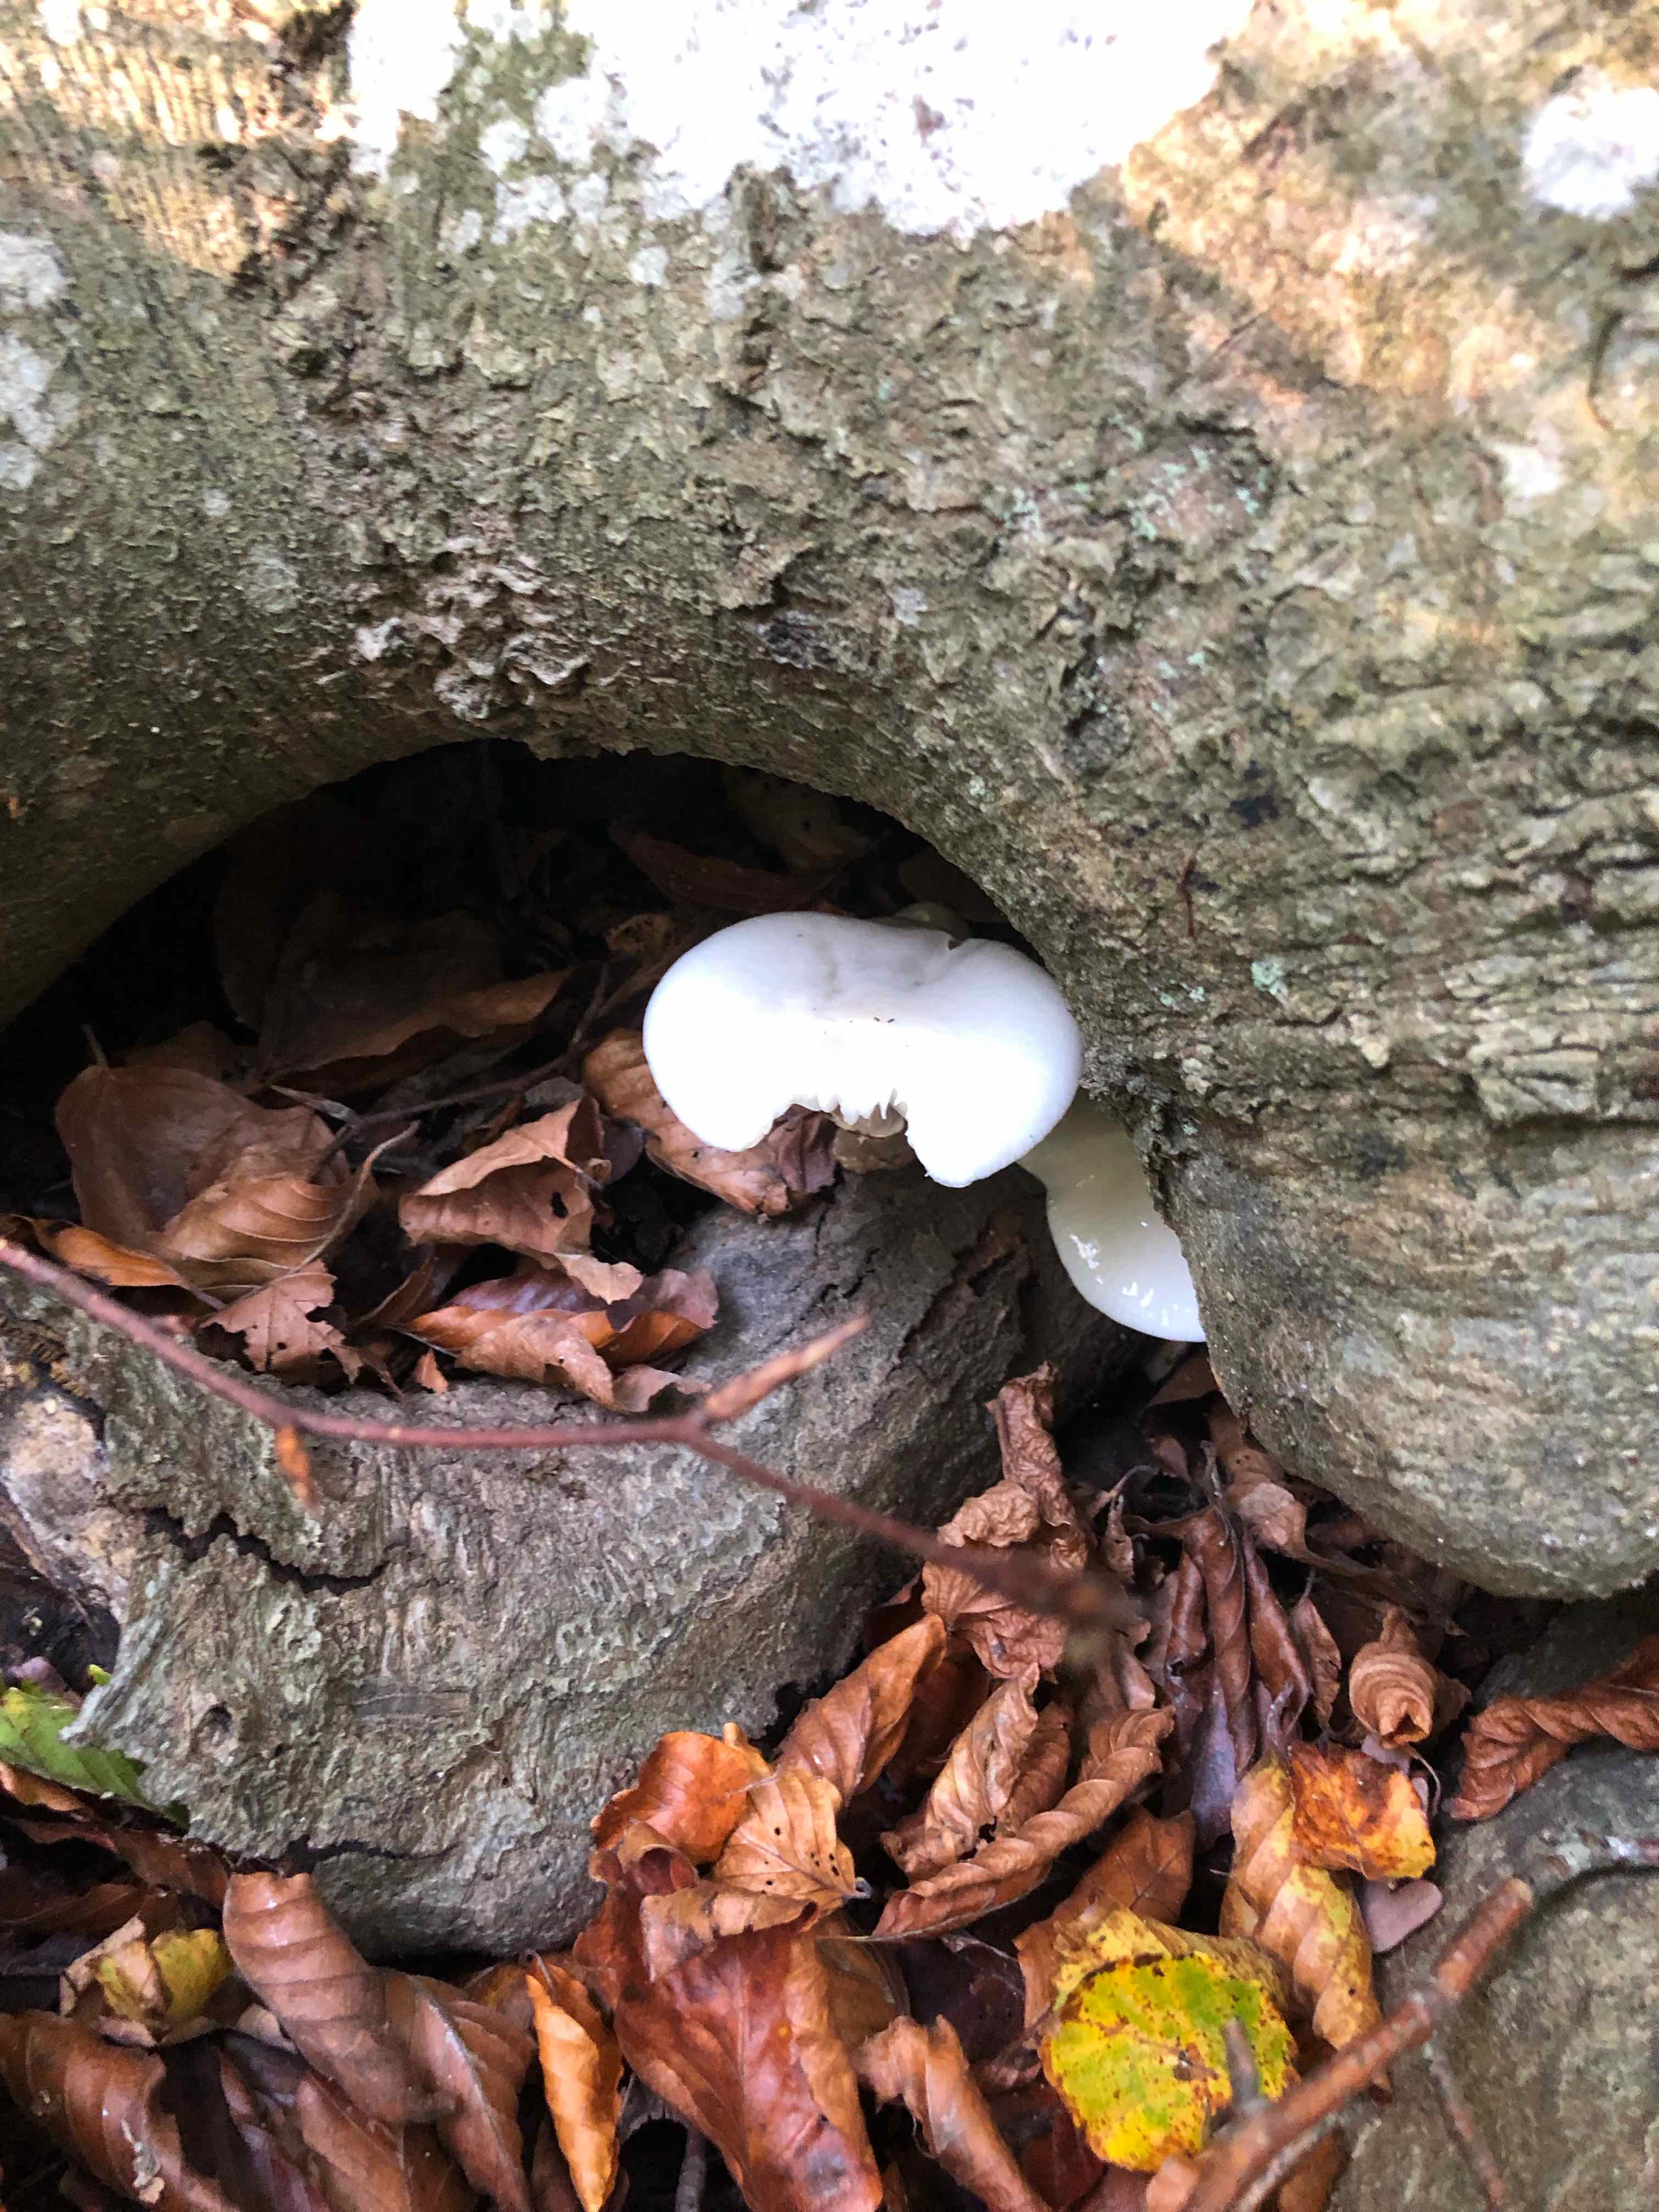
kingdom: Fungi
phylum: Basidiomycota
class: Agaricomycetes
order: Agaricales
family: Physalacriaceae
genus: Mucidula
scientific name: Mucidula mucida
